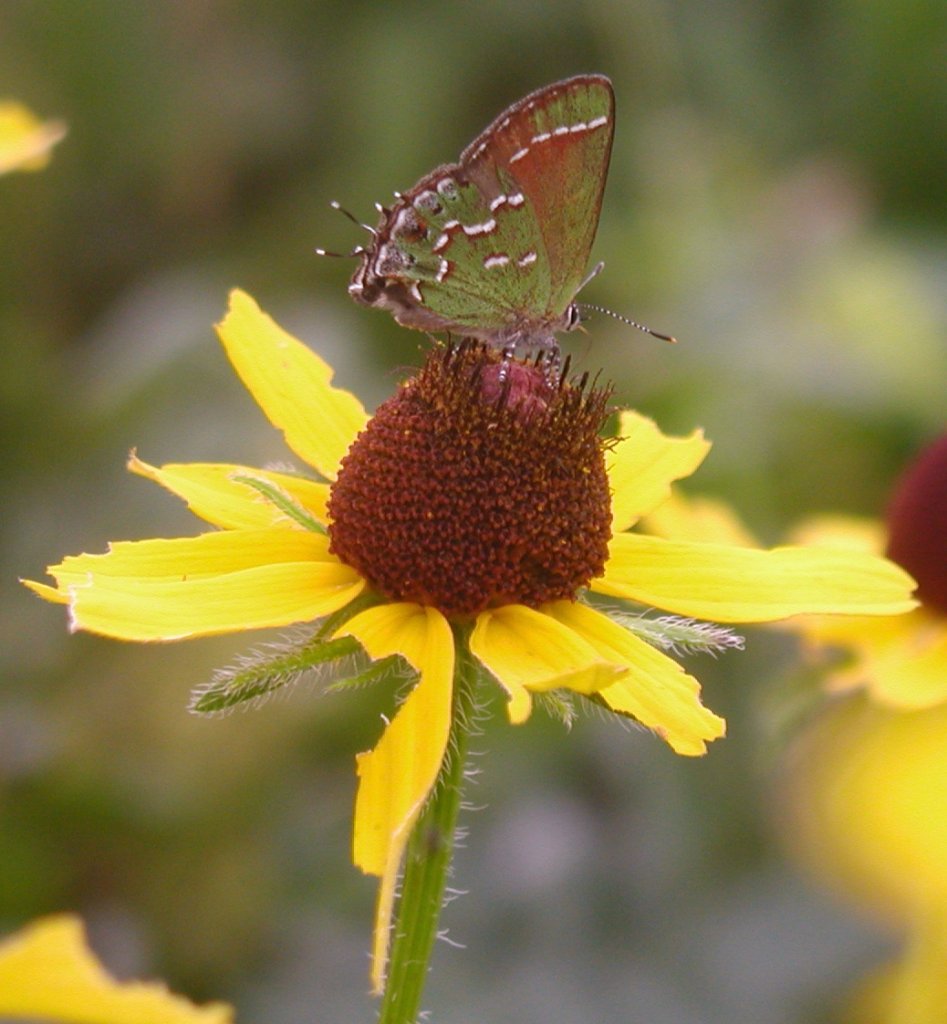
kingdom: Animalia
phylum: Arthropoda
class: Insecta
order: Lepidoptera
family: Lycaenidae
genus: Mitoura
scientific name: Mitoura gryneus
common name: Juniper Hairstreak
